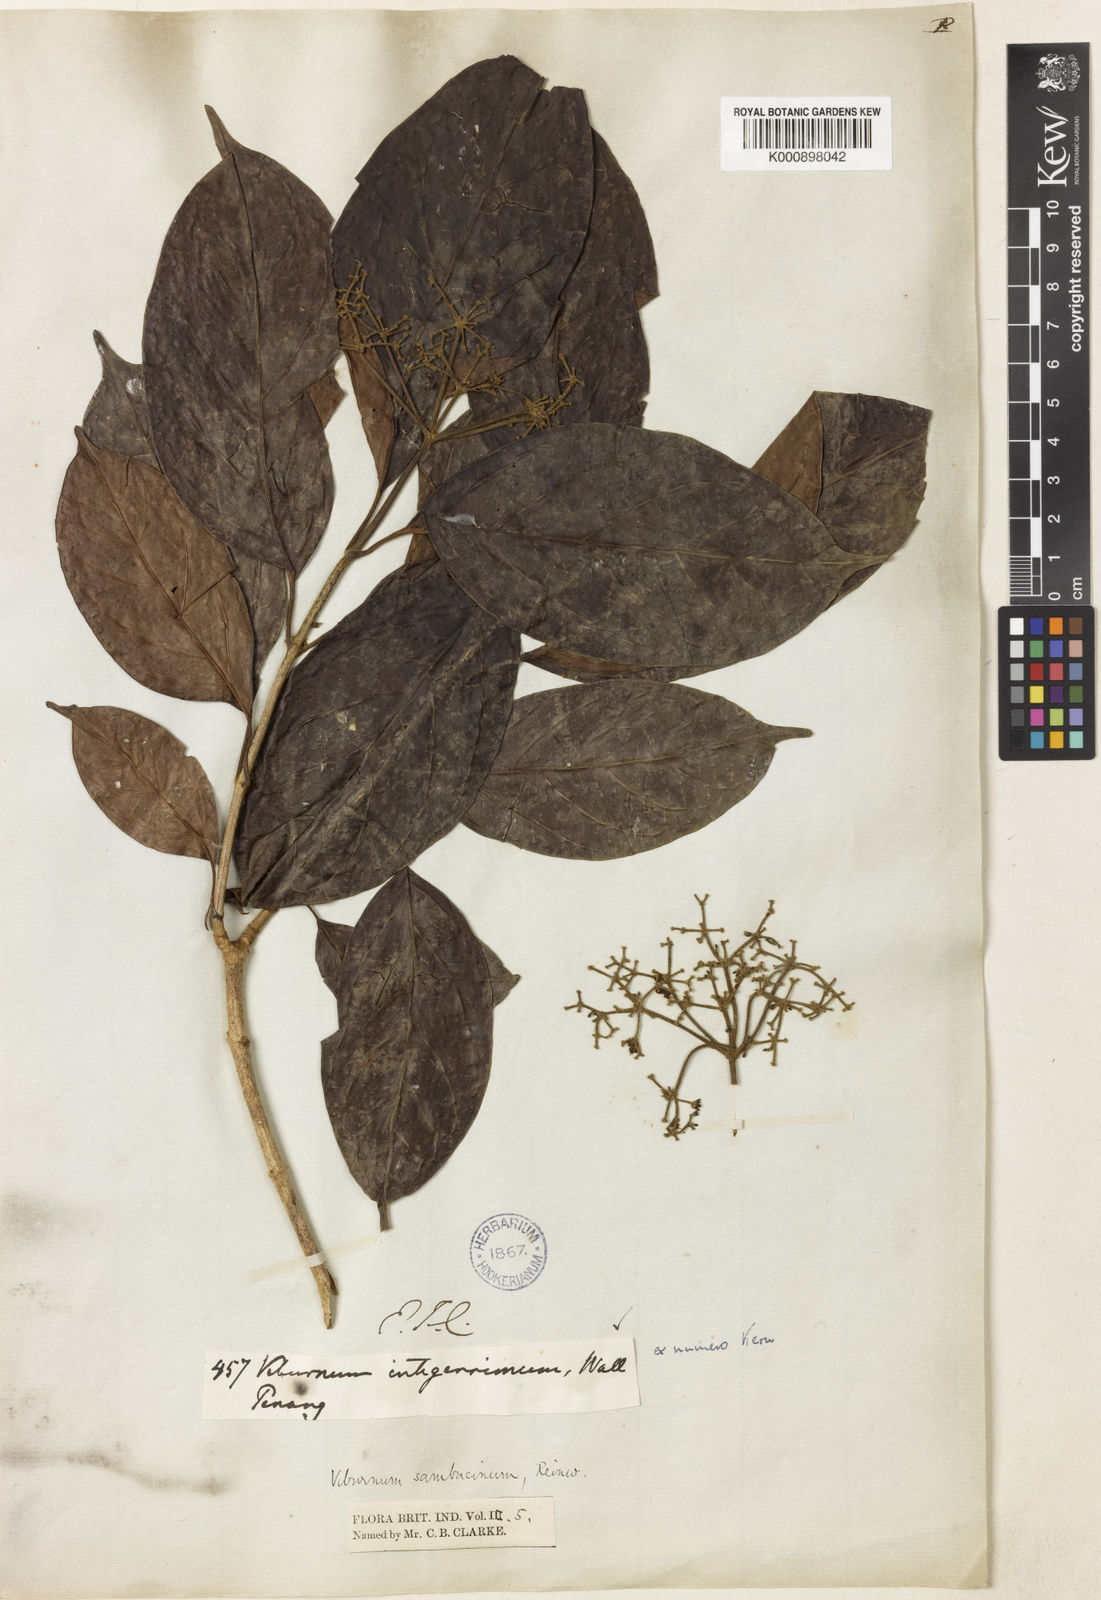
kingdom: Plantae
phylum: Tracheophyta
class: Magnoliopsida
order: Dipsacales
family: Viburnaceae
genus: Viburnum
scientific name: Viburnum
